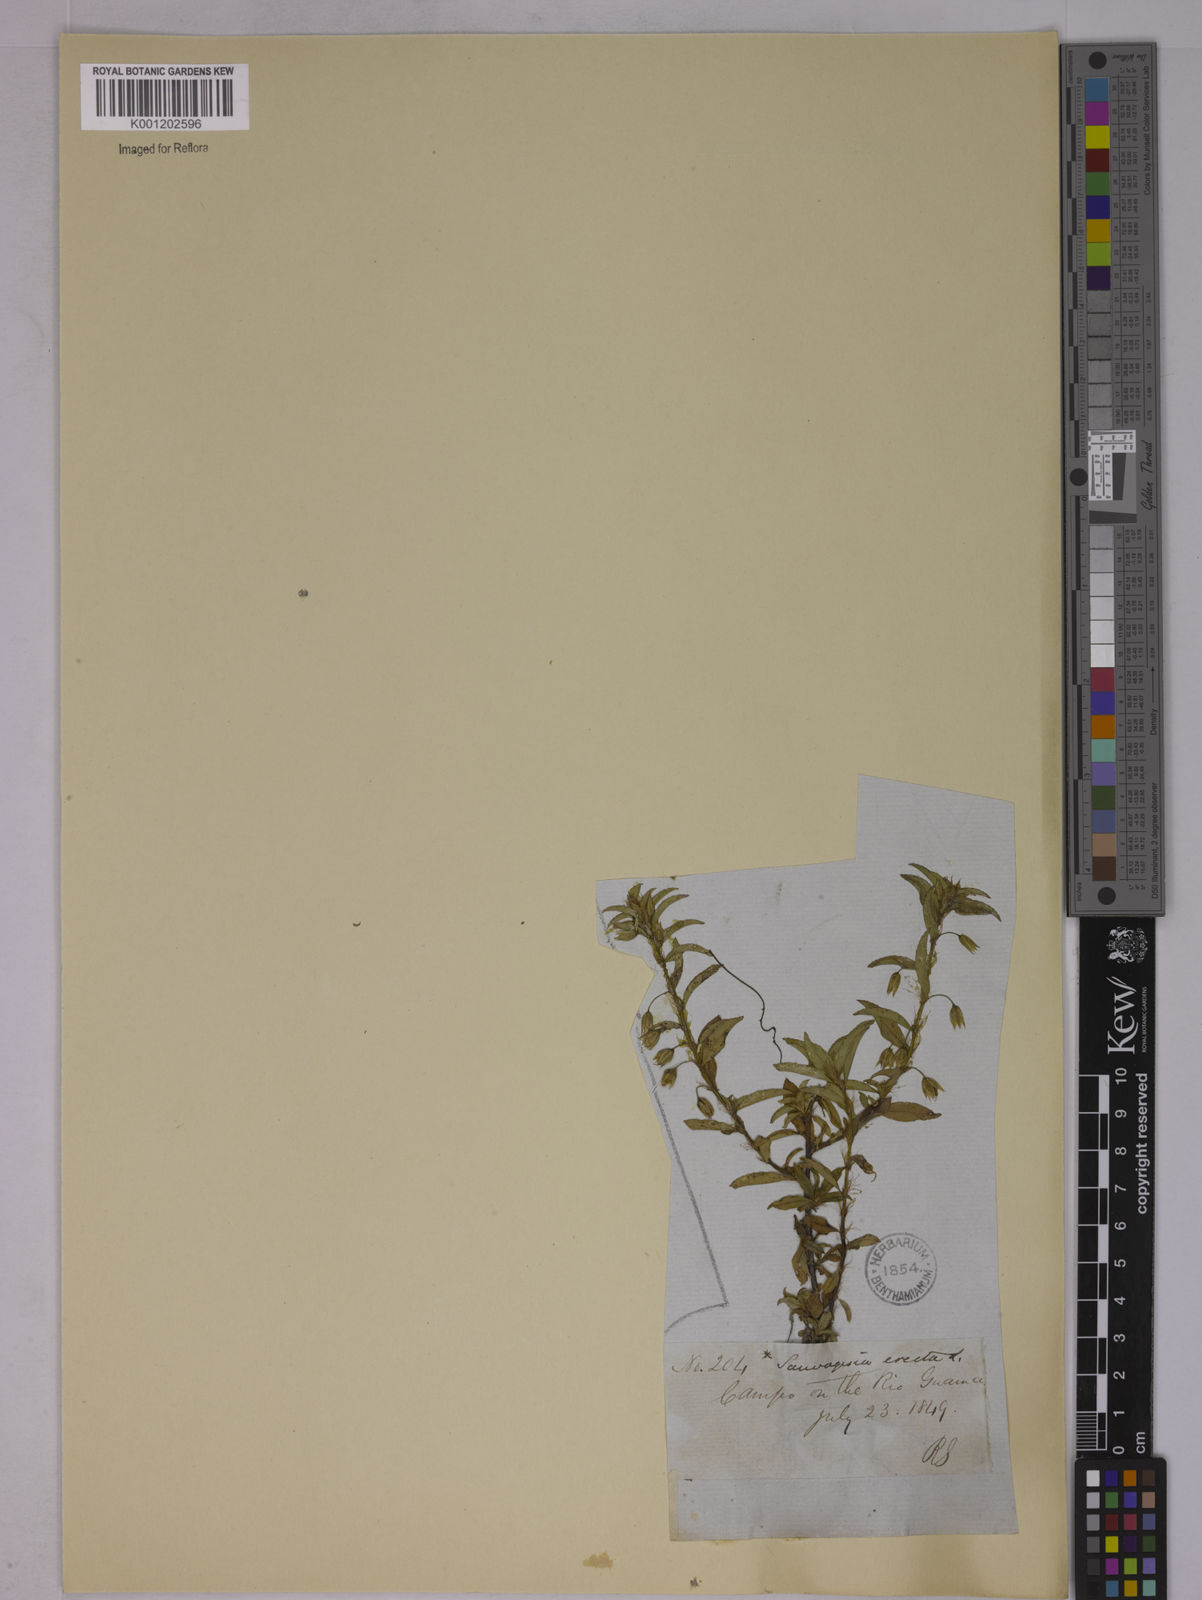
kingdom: Plantae
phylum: Tracheophyta
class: Magnoliopsida
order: Malpighiales
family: Ochnaceae
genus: Sauvagesia
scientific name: Sauvagesia erecta
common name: Creole tea
